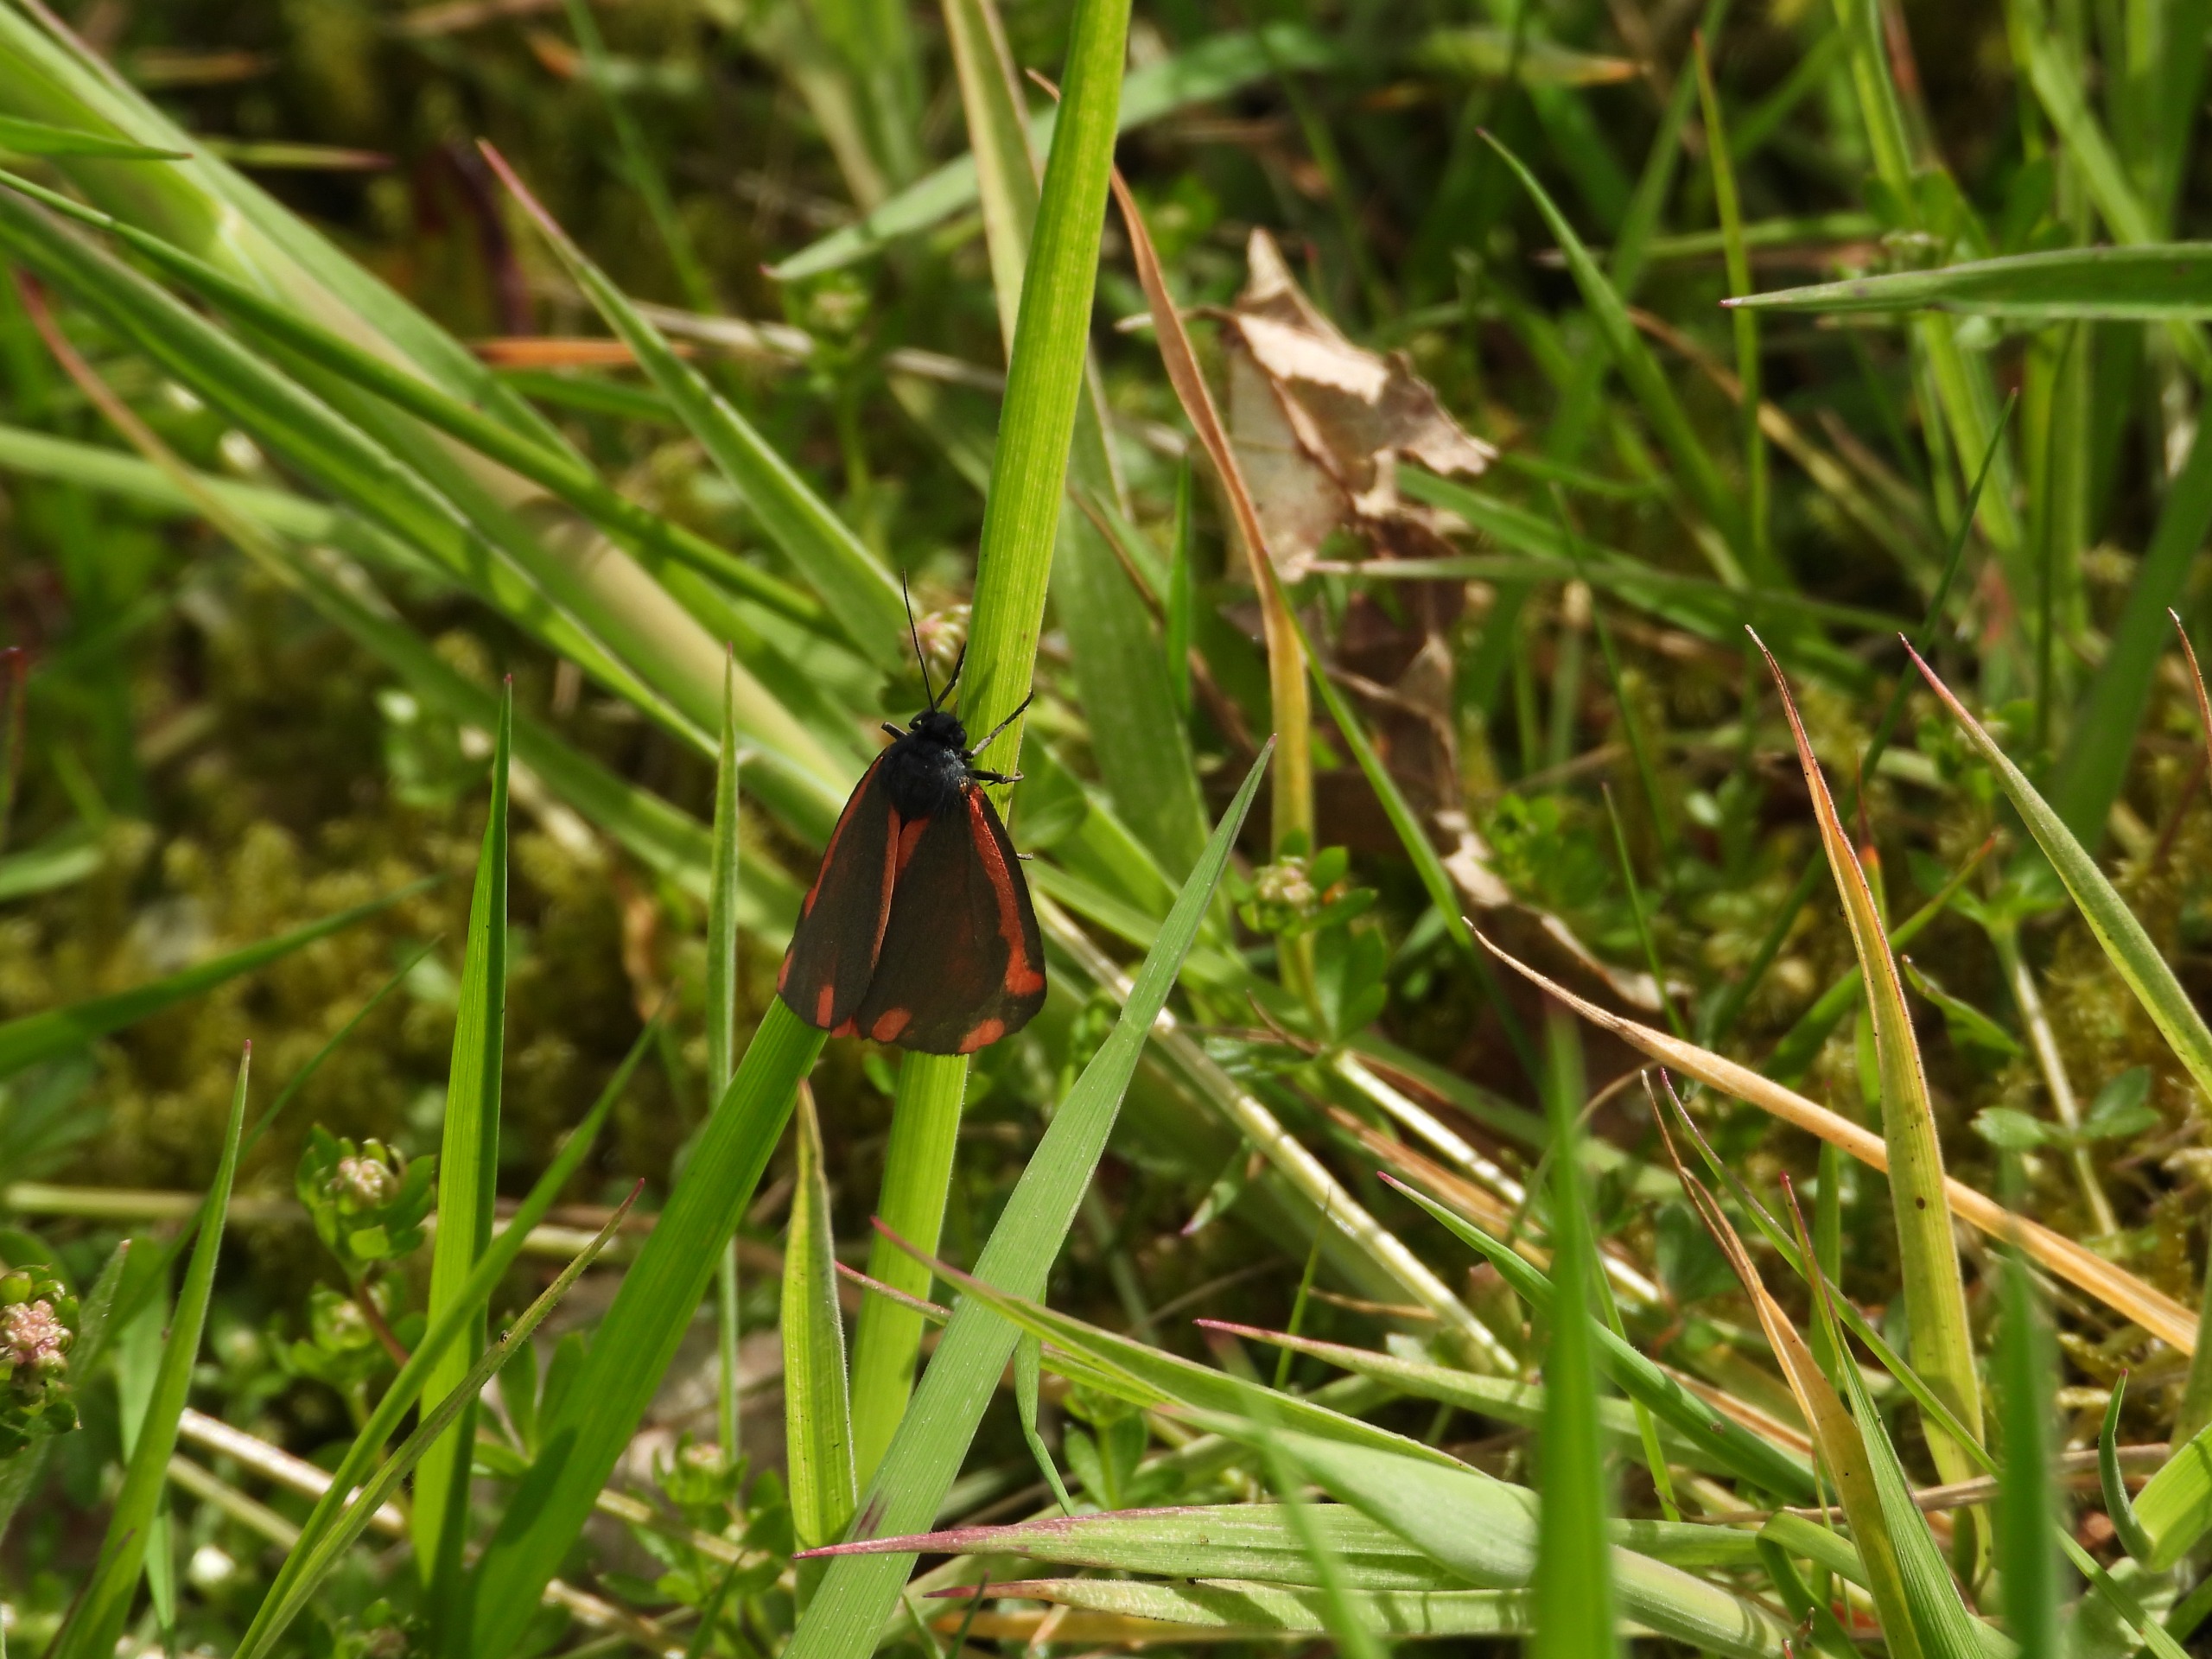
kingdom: Animalia
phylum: Arthropoda
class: Insecta
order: Lepidoptera
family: Erebidae
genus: Tyria
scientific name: Tyria jacobaeae
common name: Blodplet
